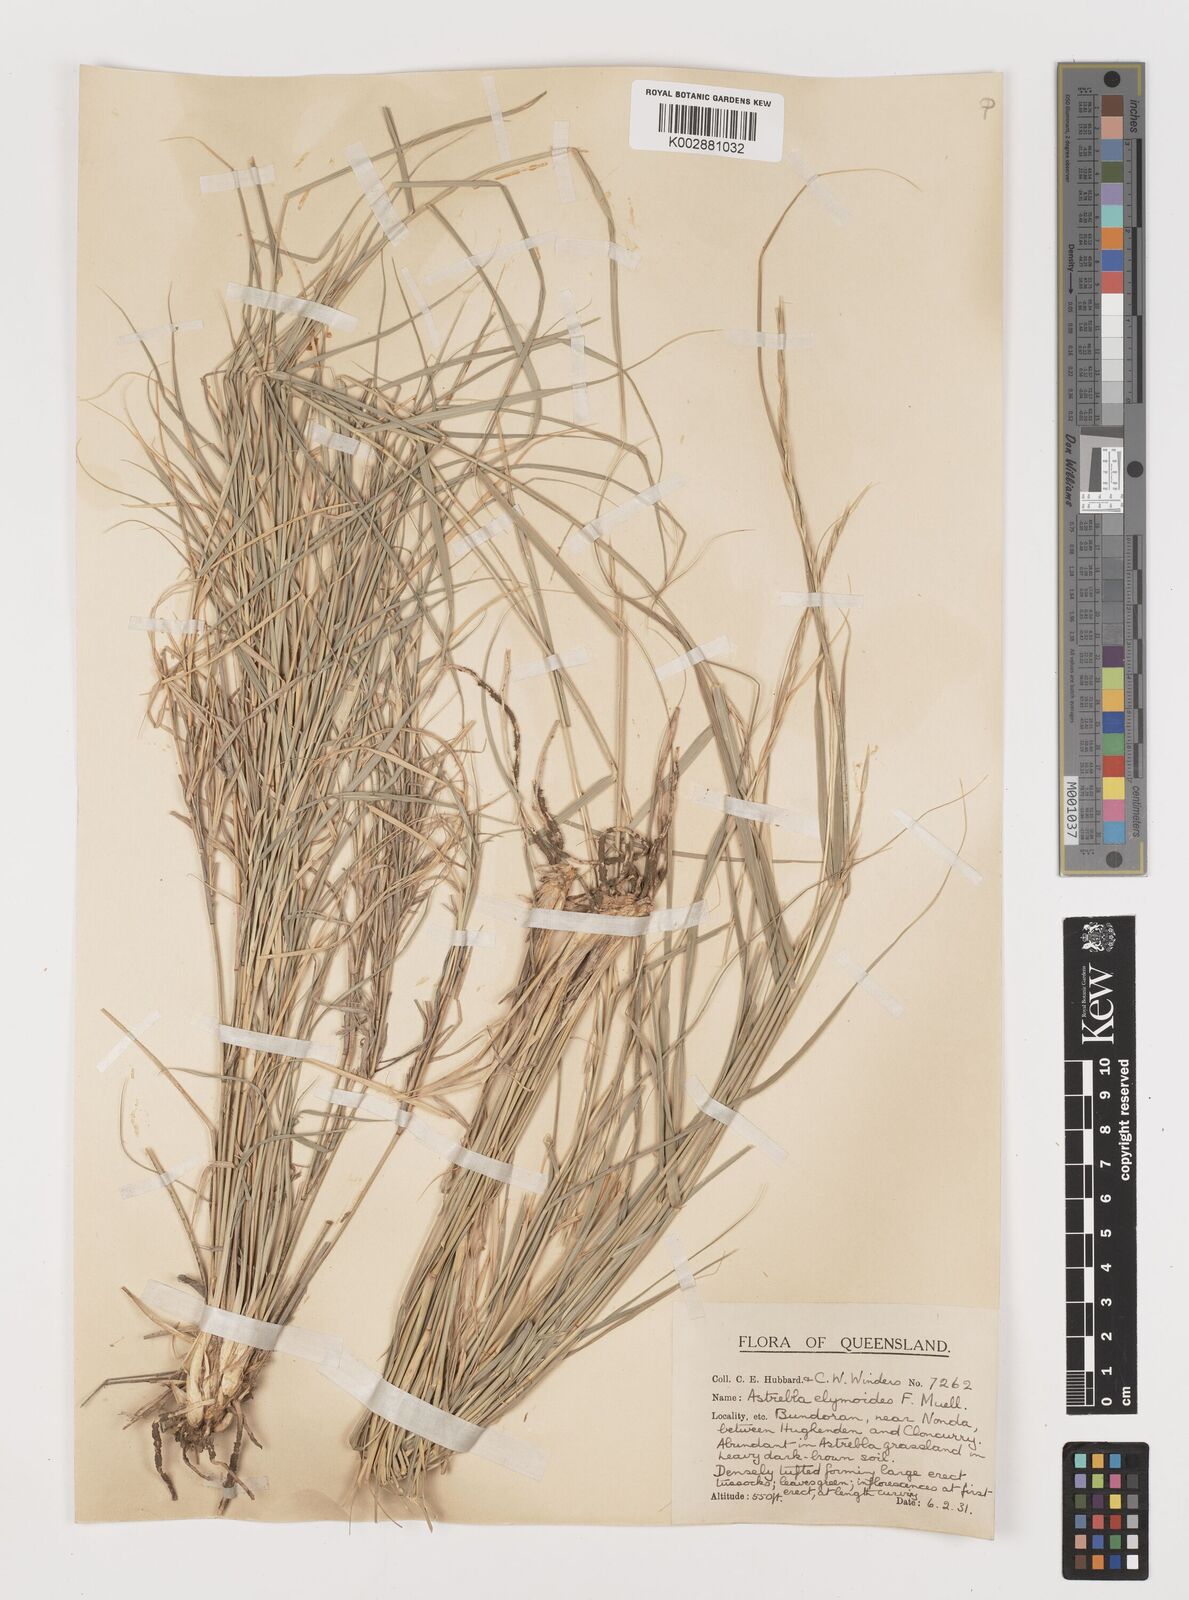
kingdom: Plantae
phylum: Tracheophyta
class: Liliopsida
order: Poales
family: Poaceae
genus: Astrebla
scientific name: Astrebla elymoides
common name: Hoop mitchell grass
